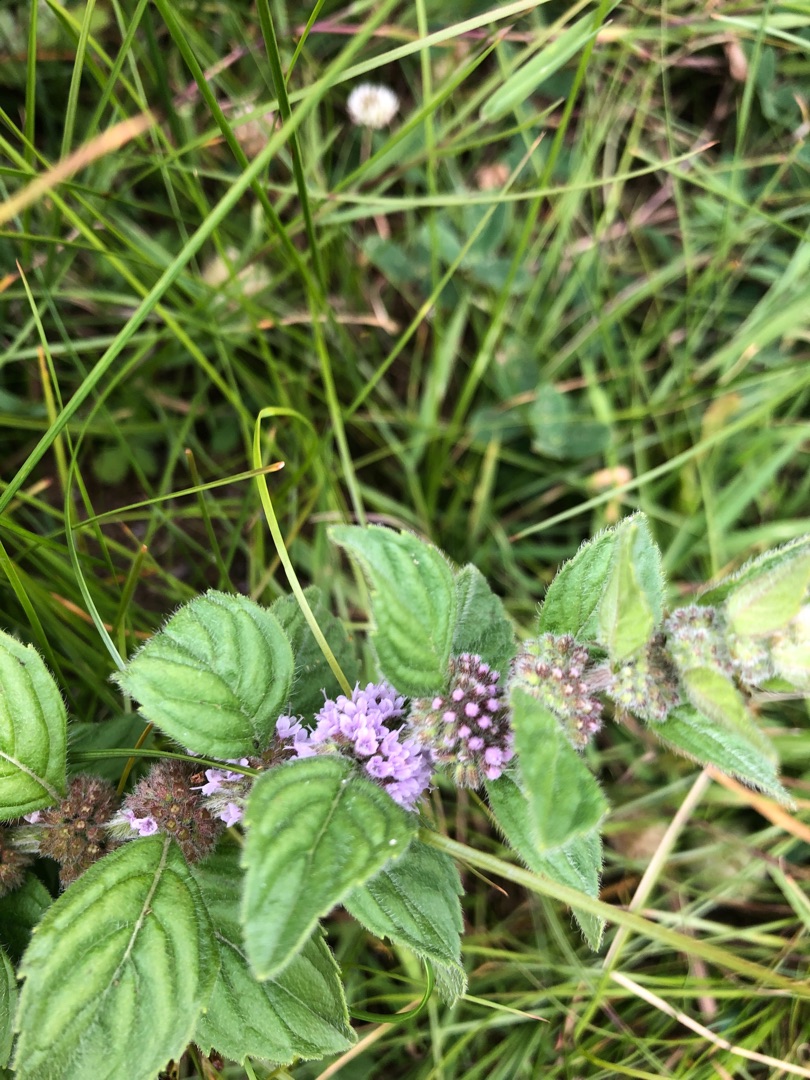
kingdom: Plantae
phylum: Tracheophyta
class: Magnoliopsida
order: Lamiales
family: Lamiaceae
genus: Mentha
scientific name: Mentha arvensis
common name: Ager-mynte
